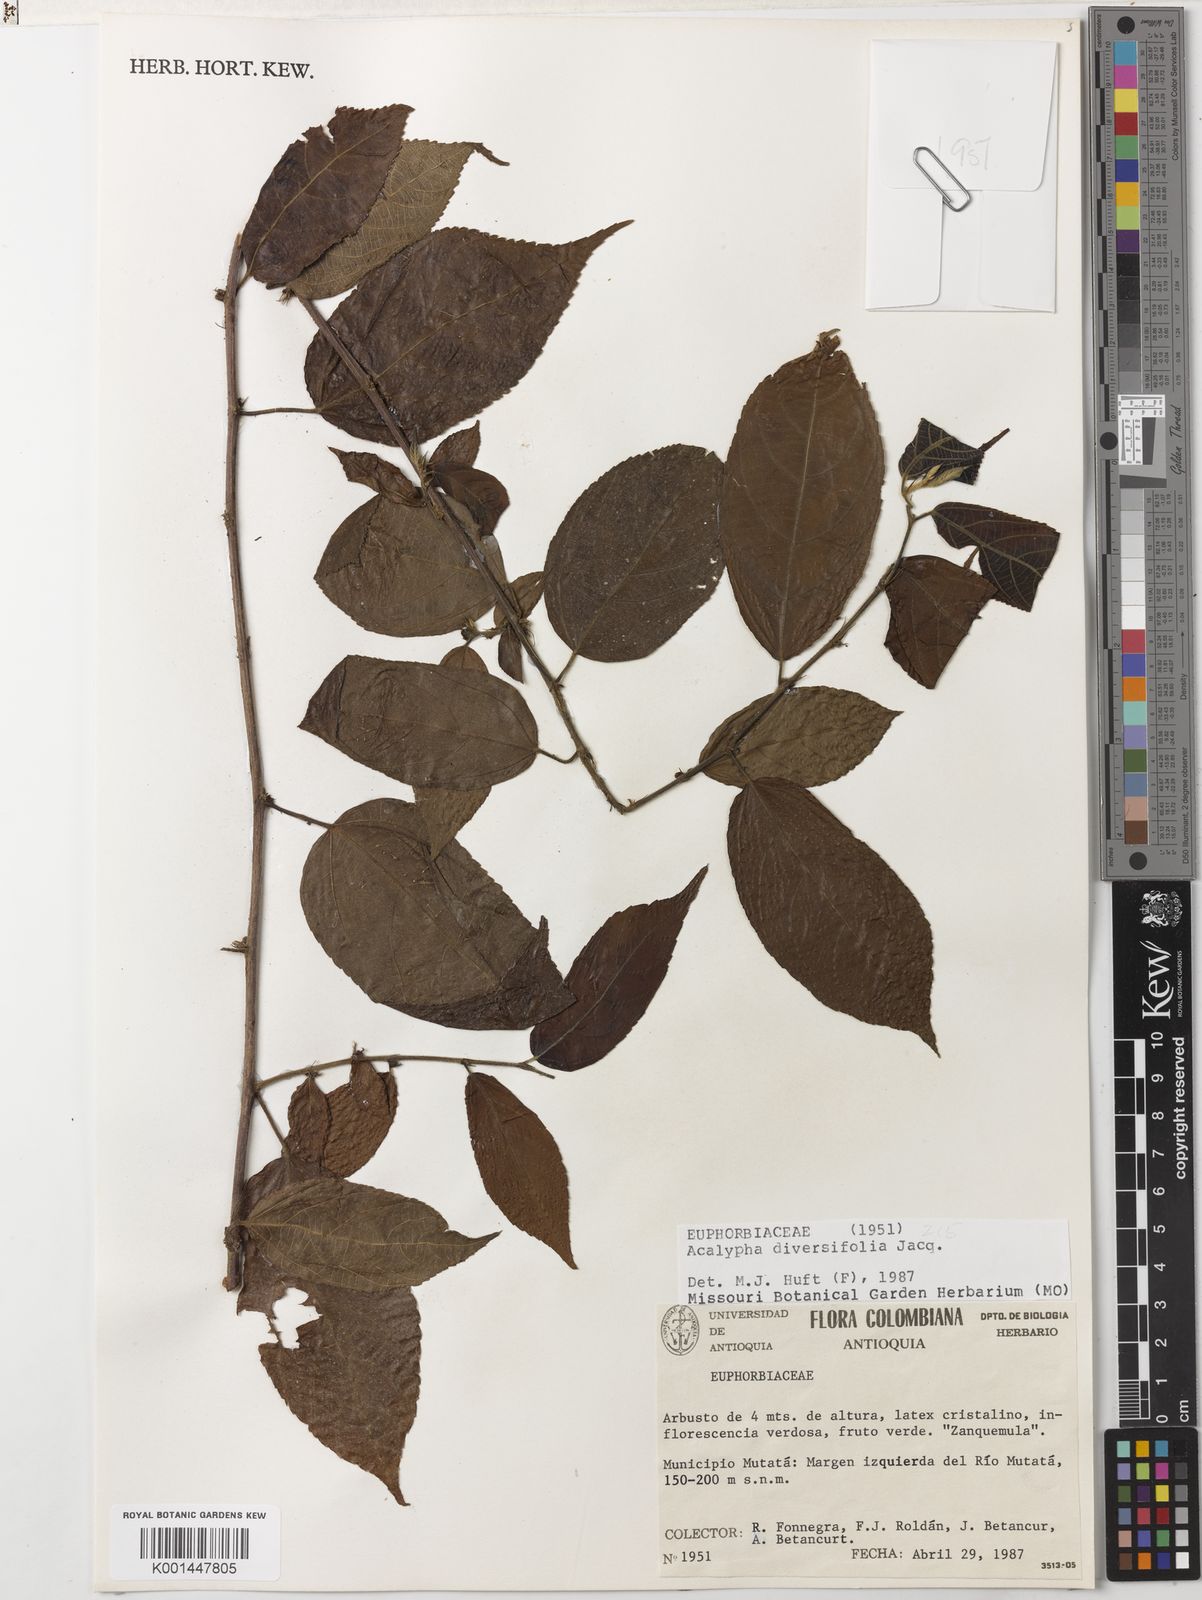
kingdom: Plantae
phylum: Tracheophyta
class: Magnoliopsida
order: Malpighiales
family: Euphorbiaceae
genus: Acalypha
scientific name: Acalypha diversifolia
